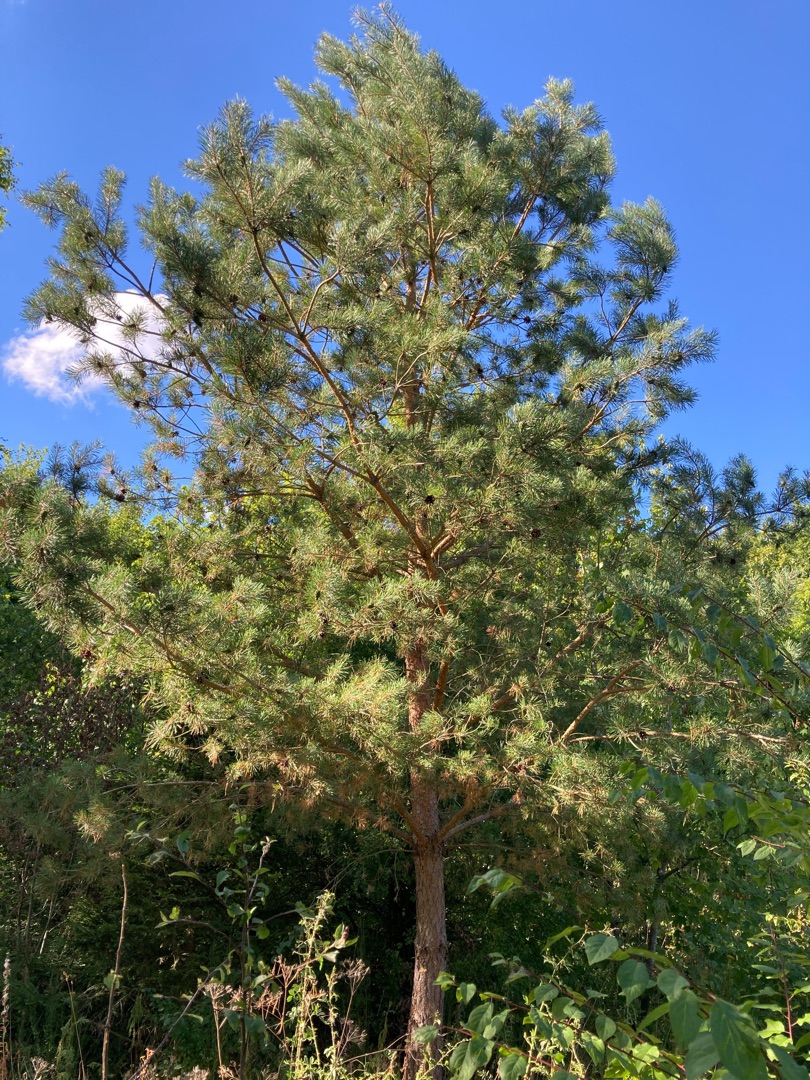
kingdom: Plantae
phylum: Tracheophyta
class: Pinopsida
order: Pinales
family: Pinaceae
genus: Pinus
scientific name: Pinus sylvestris
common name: Skov-fyr
